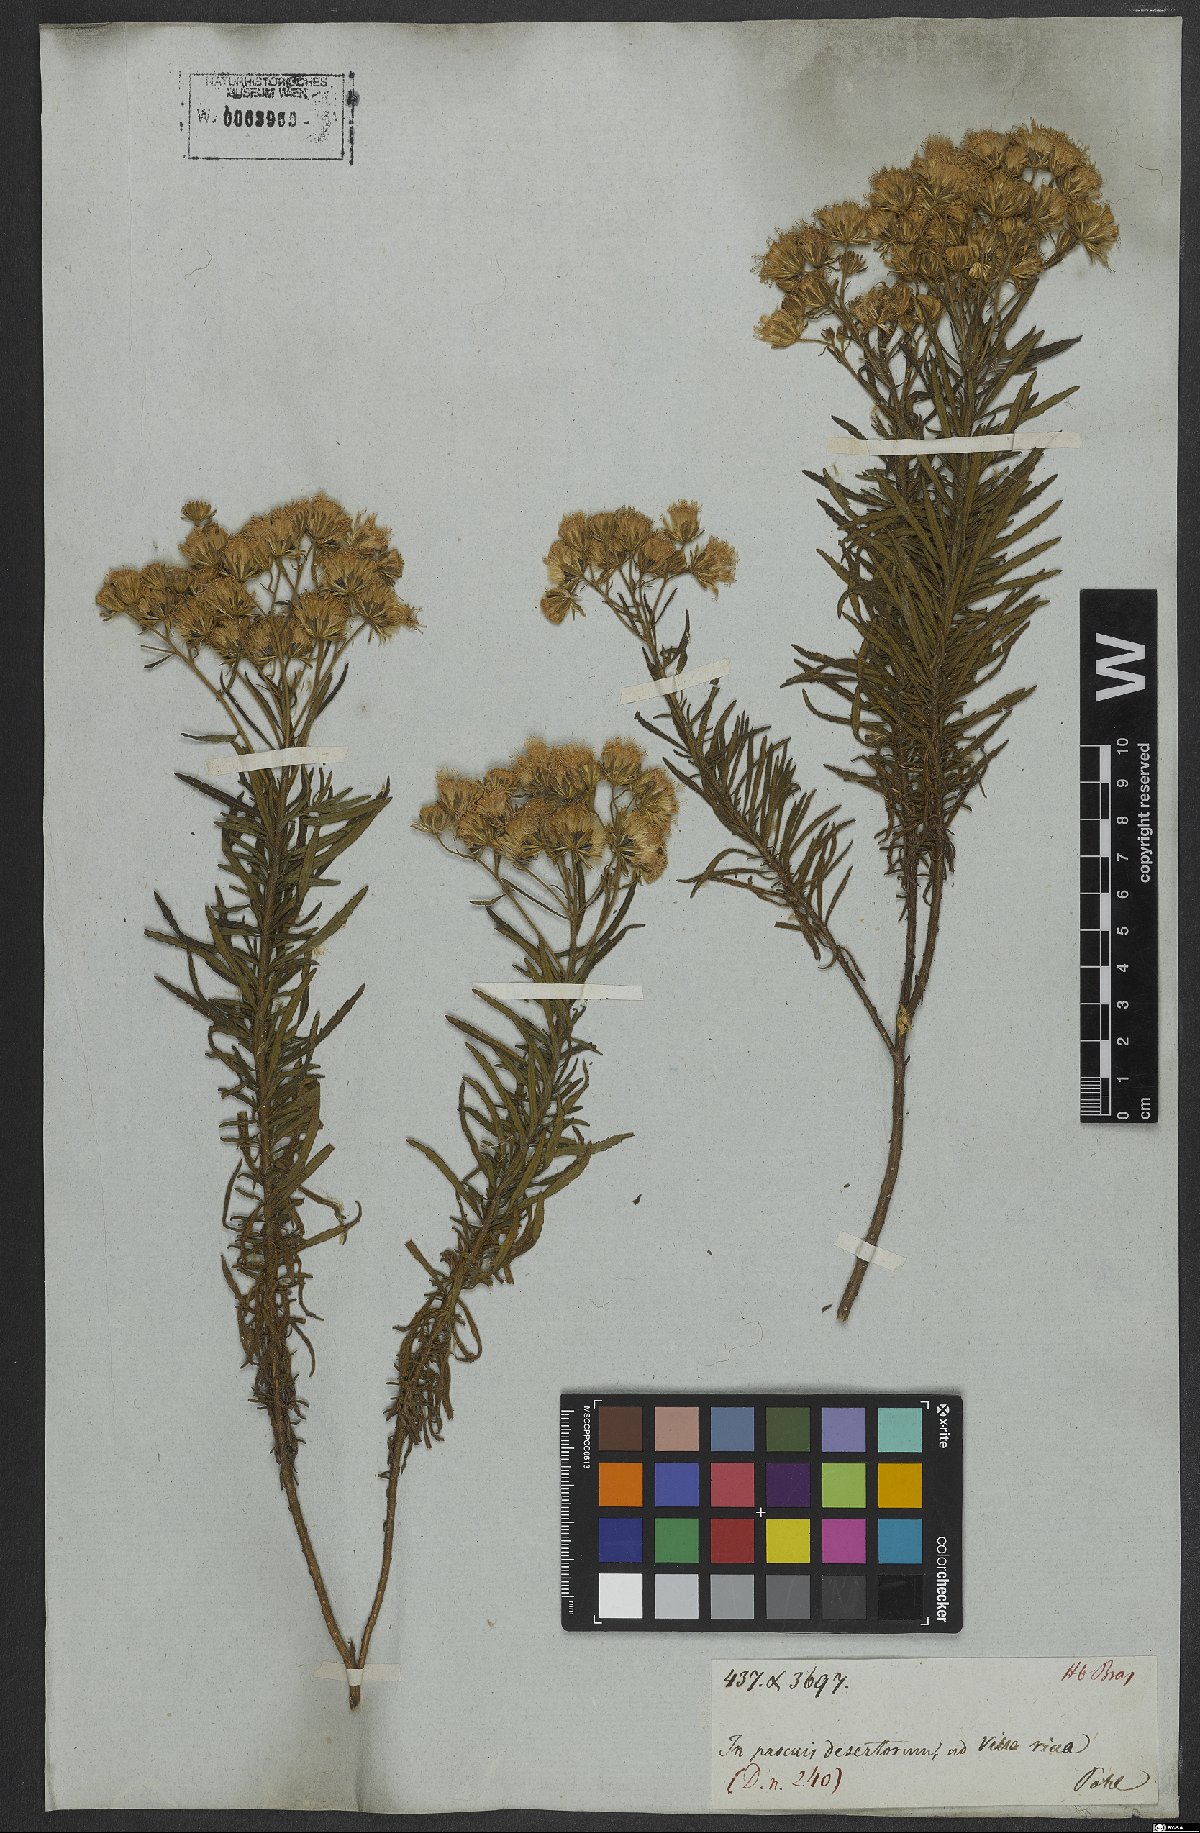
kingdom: Plantae
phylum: Tracheophyta
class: Magnoliopsida
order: Asterales
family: Asteraceae
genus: Trichogonia
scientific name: Trichogonia villosa
